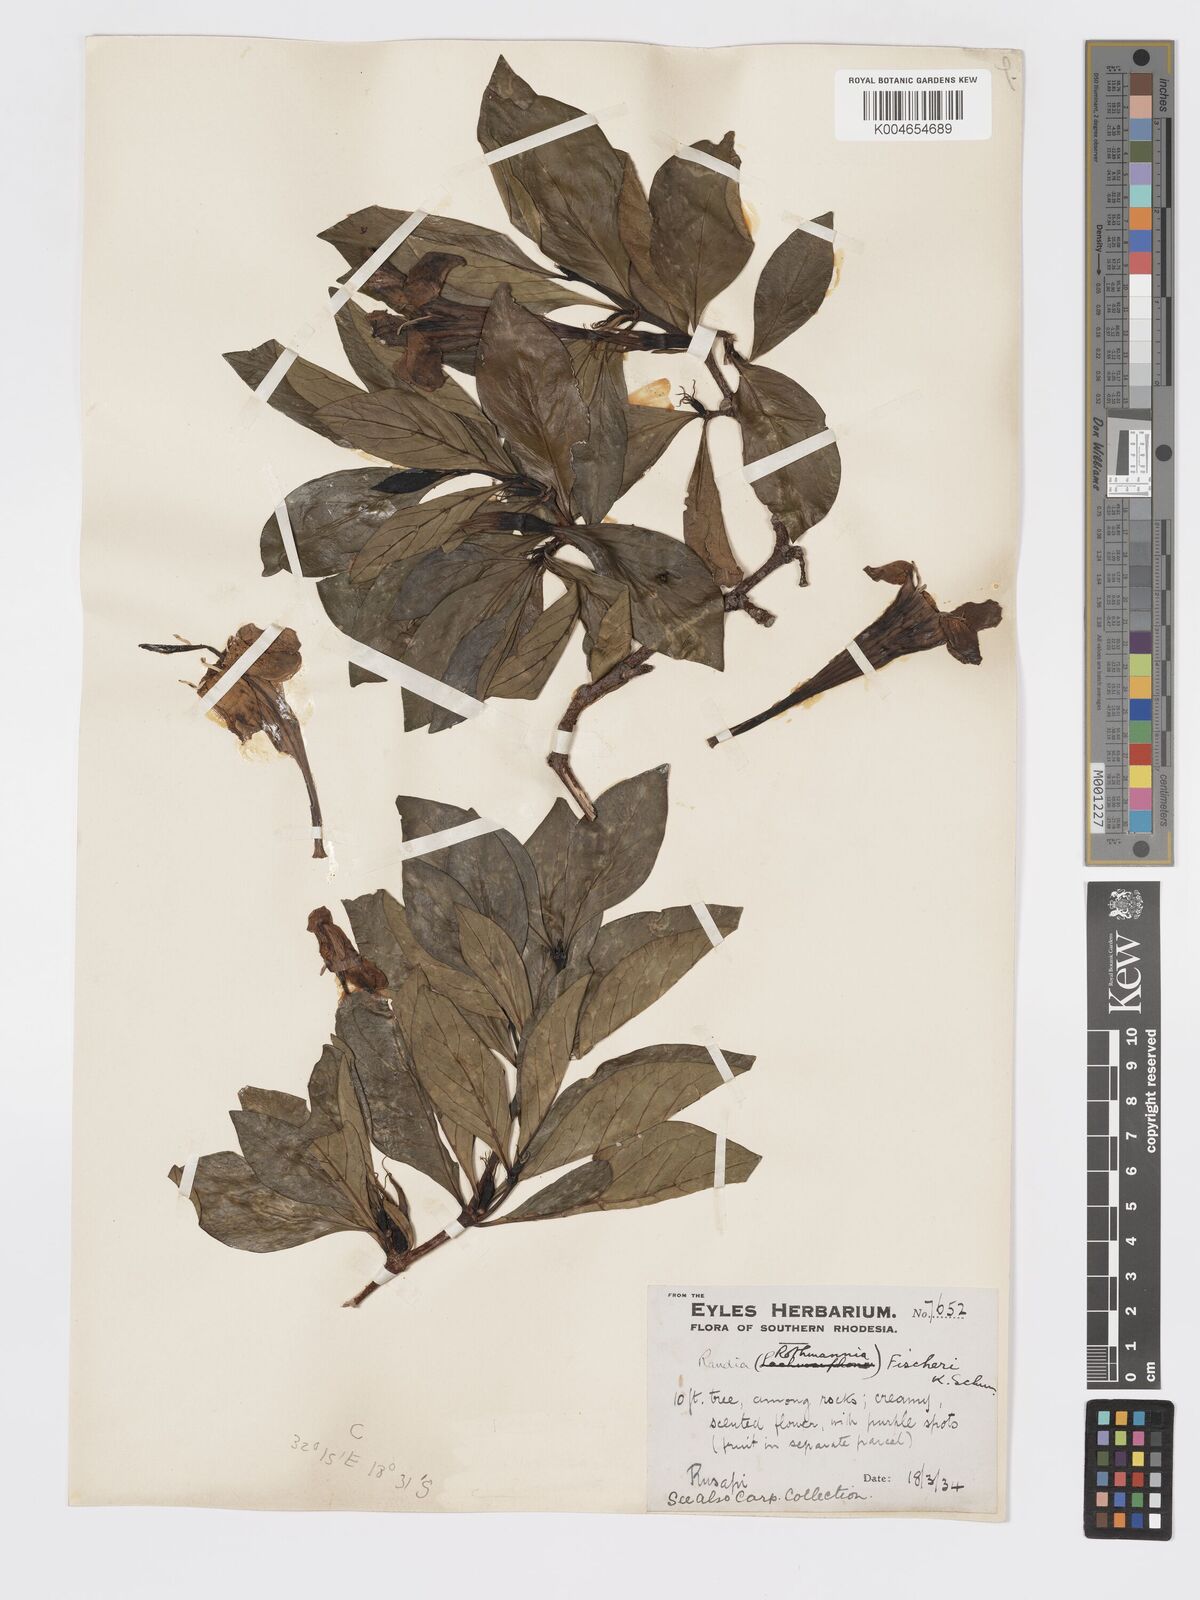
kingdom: Plantae
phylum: Tracheophyta
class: Magnoliopsida
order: Gentianales
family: Rubiaceae
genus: Rothmannia
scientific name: Rothmannia fischeri
